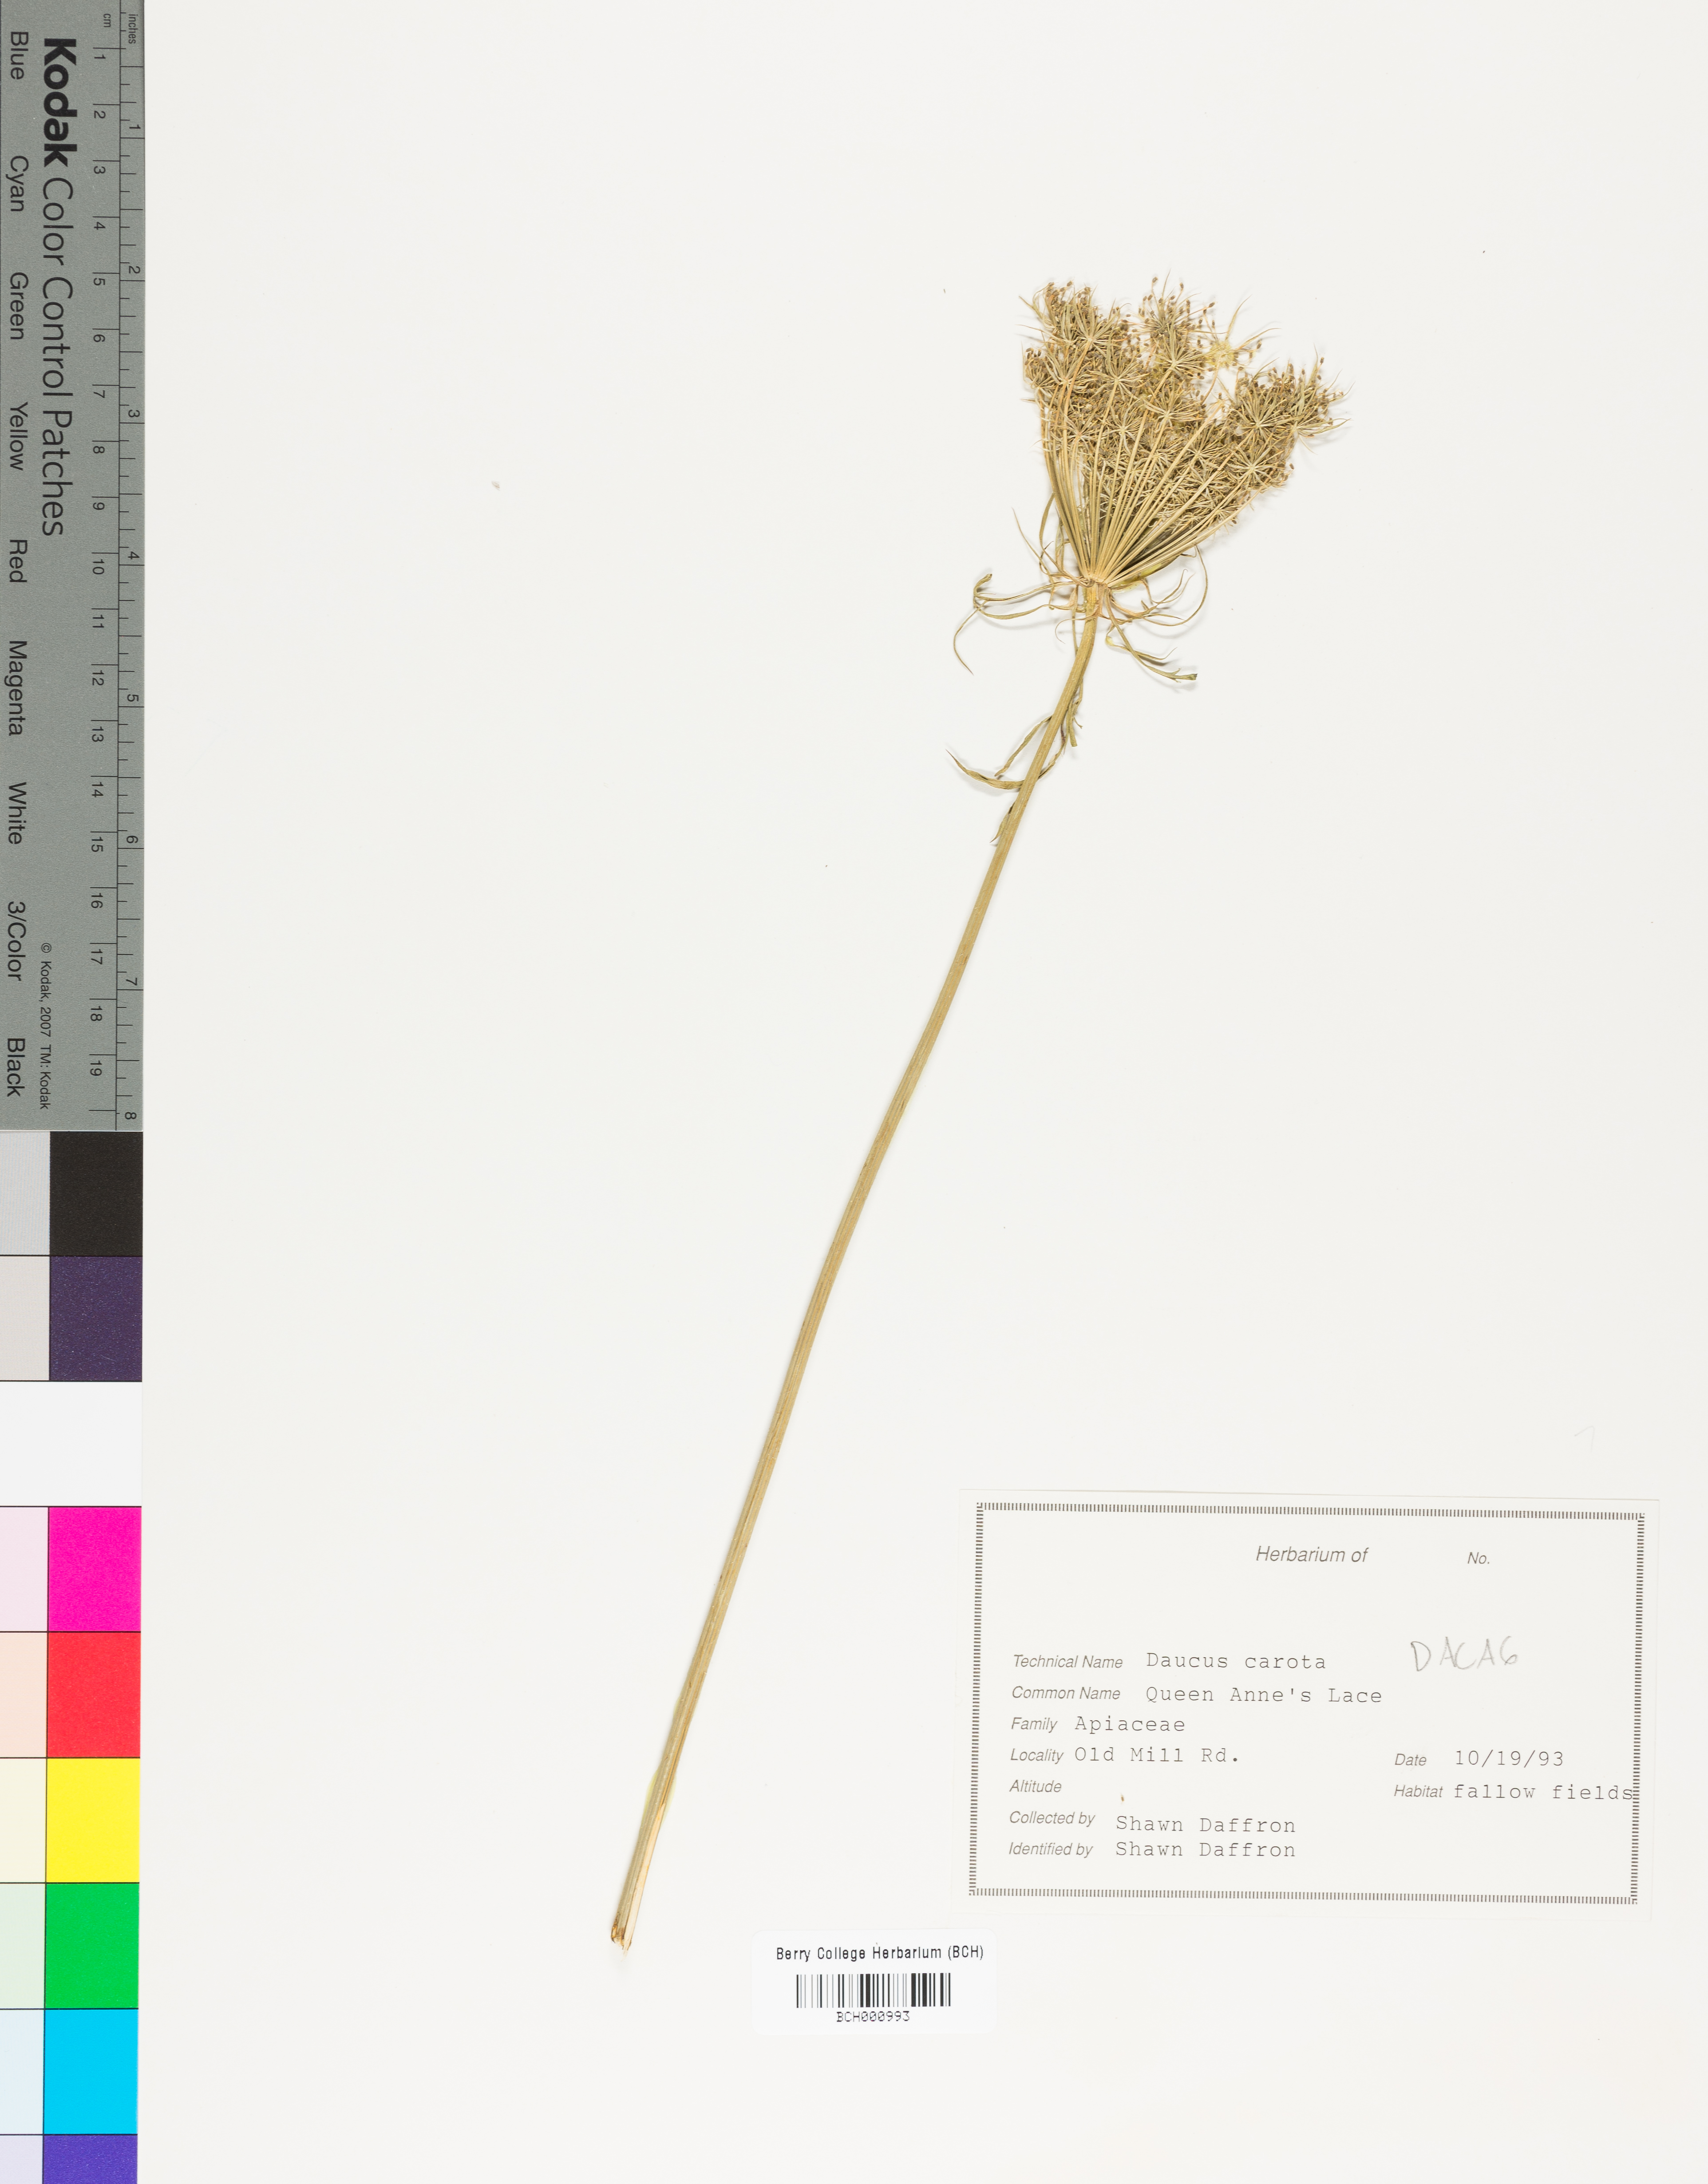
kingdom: Plantae
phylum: Tracheophyta
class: Magnoliopsida
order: Apiales
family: Apiaceae
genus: Daucus
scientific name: Daucus carota
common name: Wild carrot
